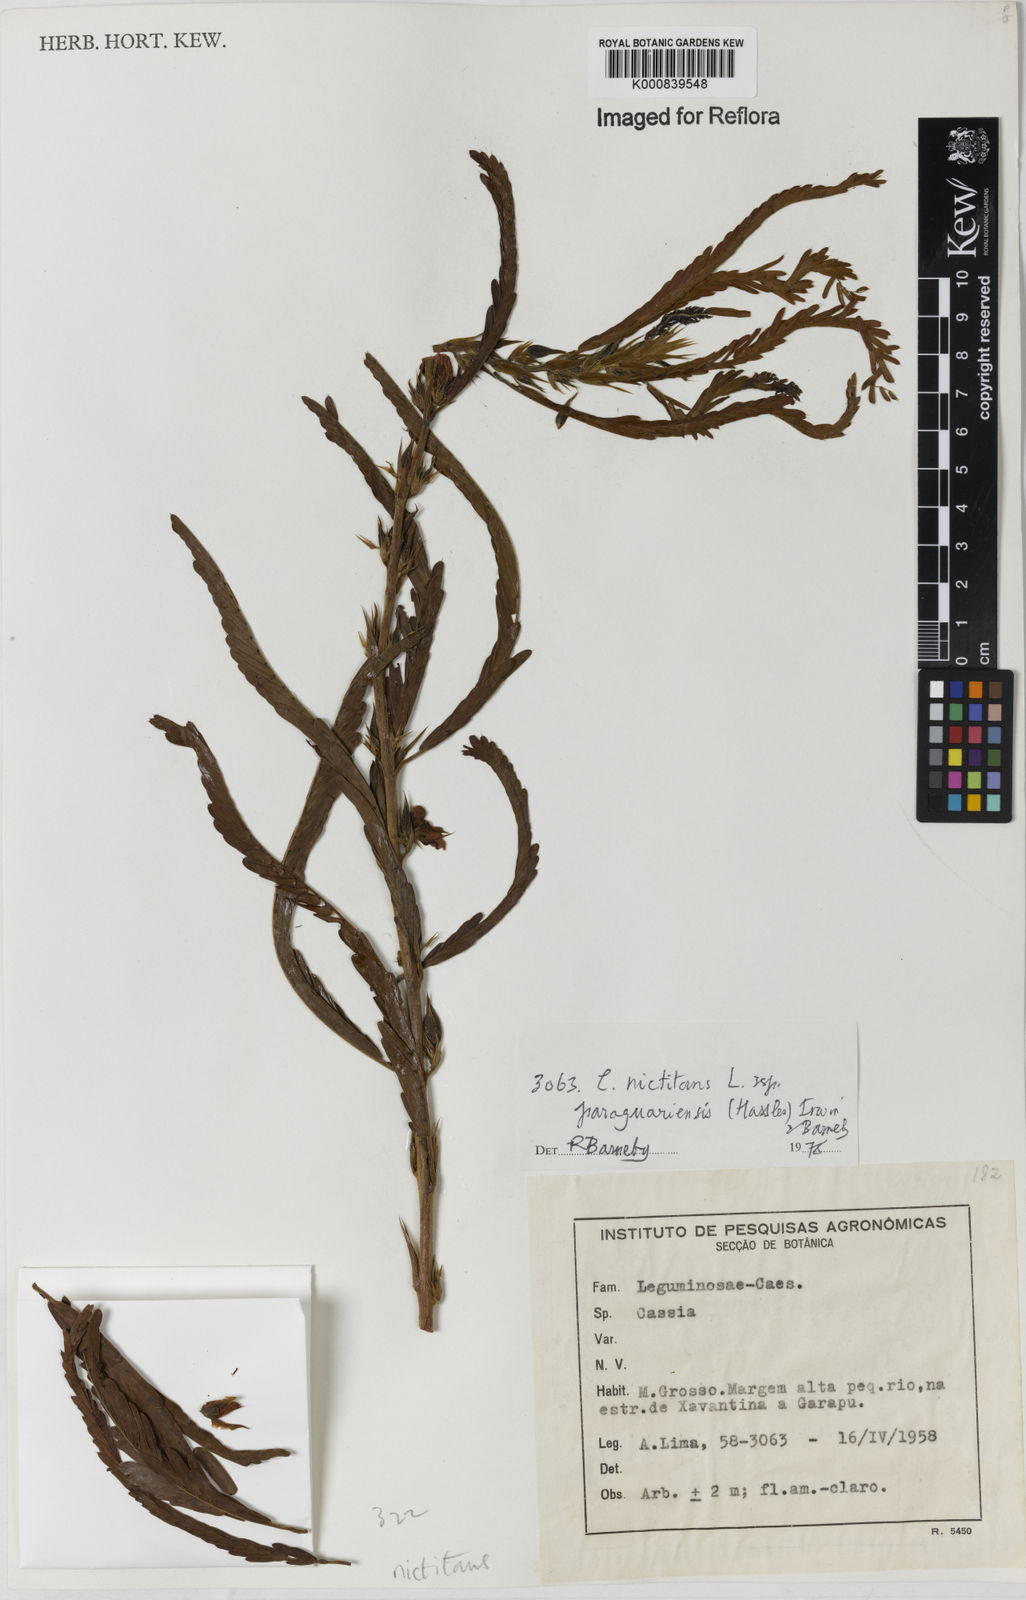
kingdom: Plantae
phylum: Tracheophyta
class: Magnoliopsida
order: Fabales
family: Fabaceae
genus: Chamaecrista
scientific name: Chamaecrista nictitans
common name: Sensitive cassia
